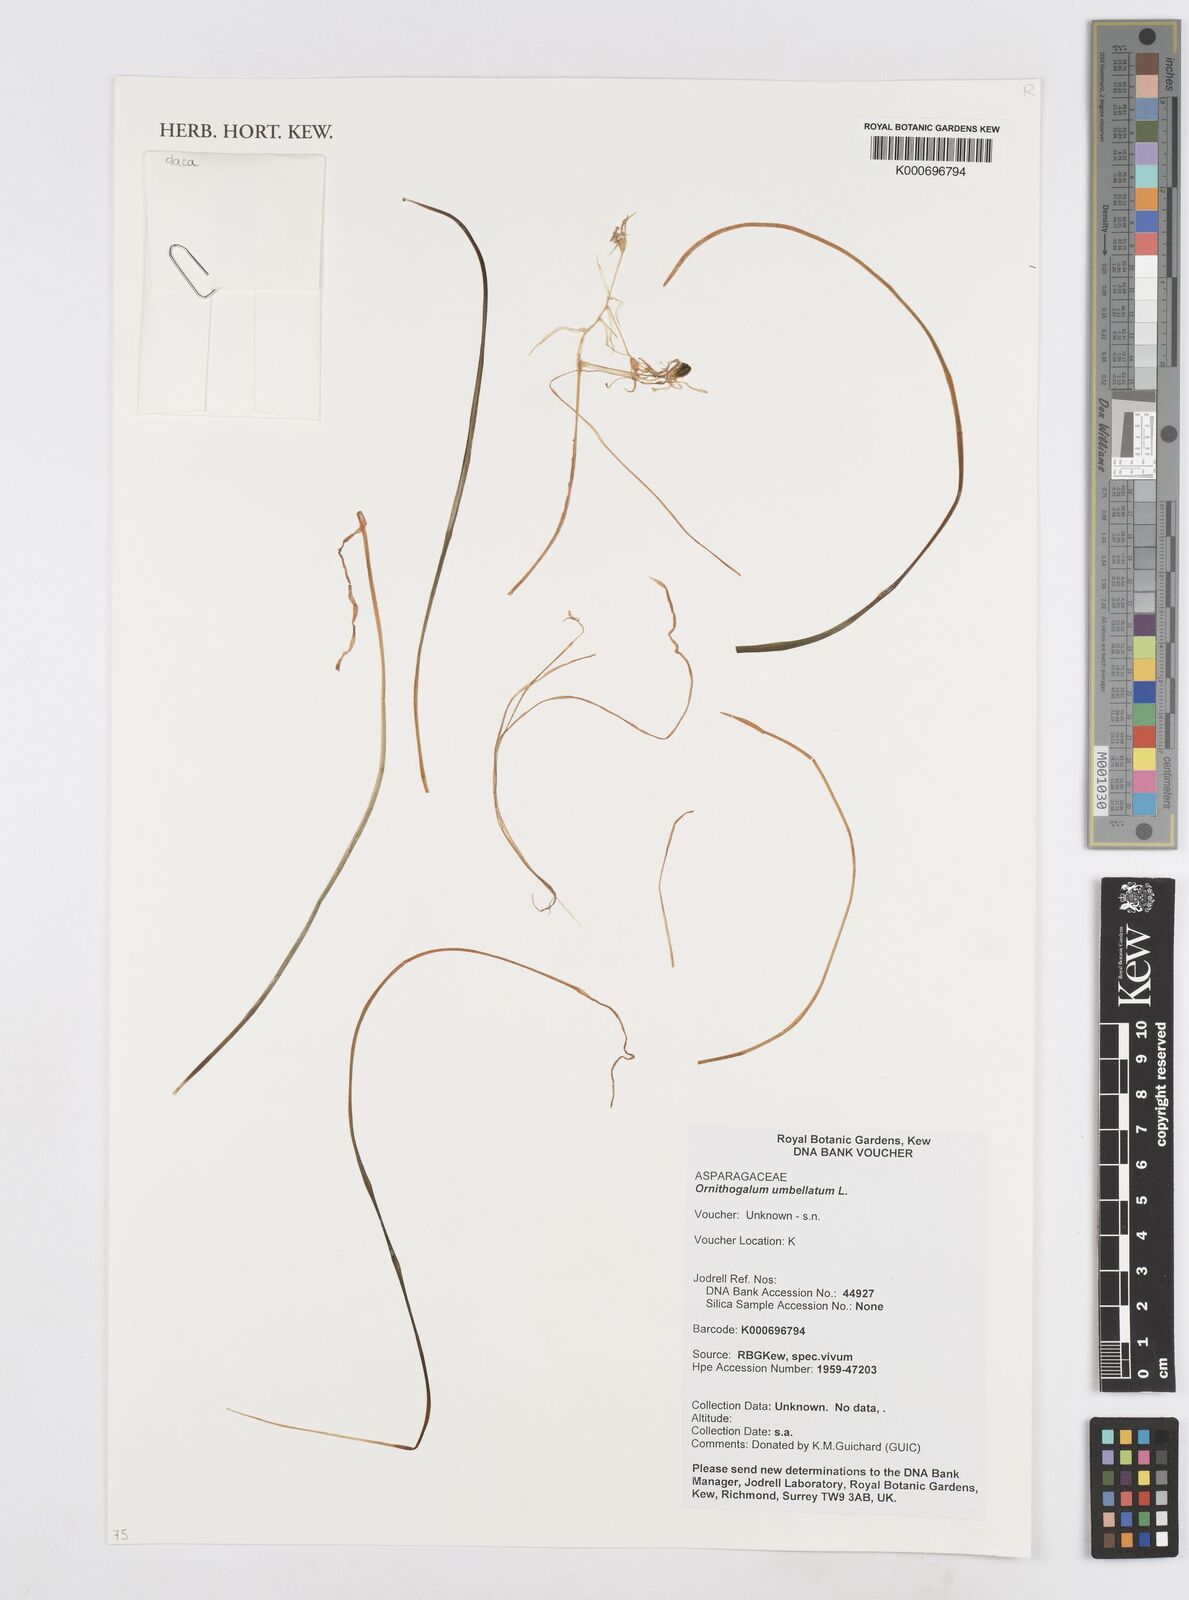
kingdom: Plantae
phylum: Tracheophyta
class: Liliopsida
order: Asparagales
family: Asparagaceae
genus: Ornithogalum
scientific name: Ornithogalum umbellatum
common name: Garden star-of-bethlehem
